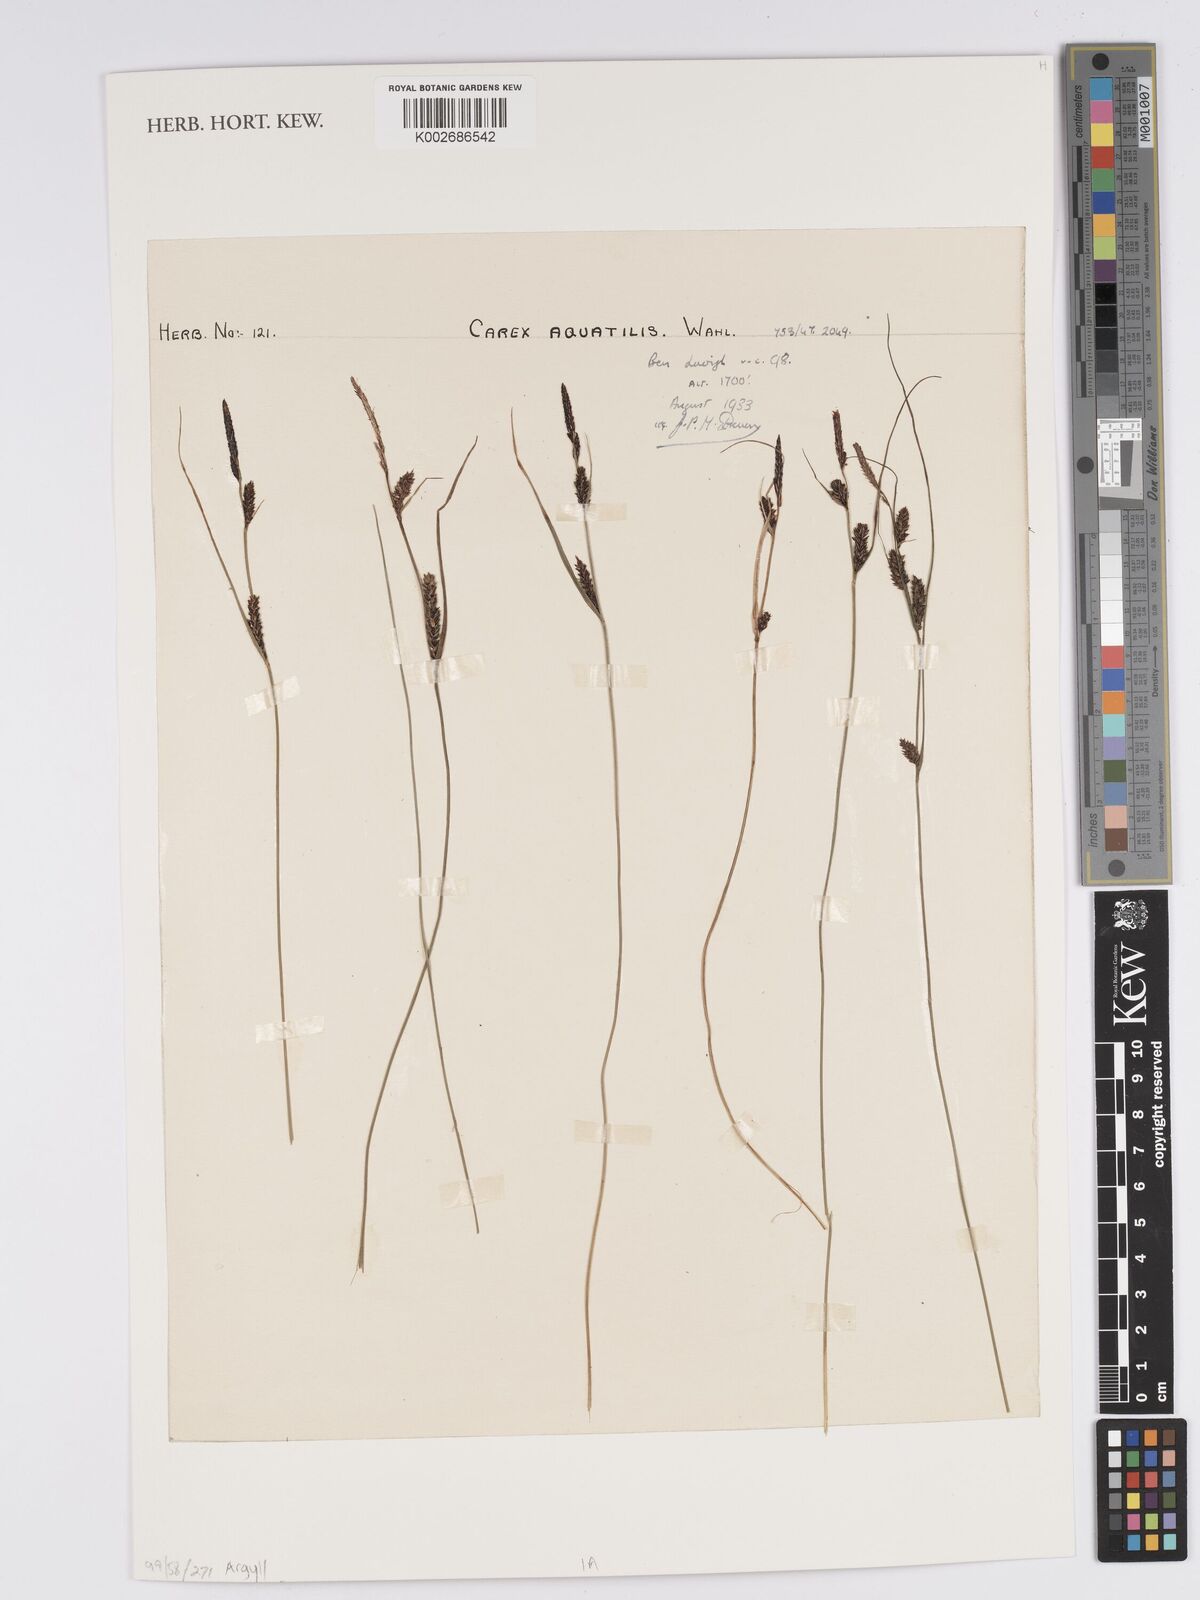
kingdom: Plantae
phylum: Tracheophyta
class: Liliopsida
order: Poales
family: Cyperaceae
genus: Carex
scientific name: Carex aquatilis
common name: Water sedge
